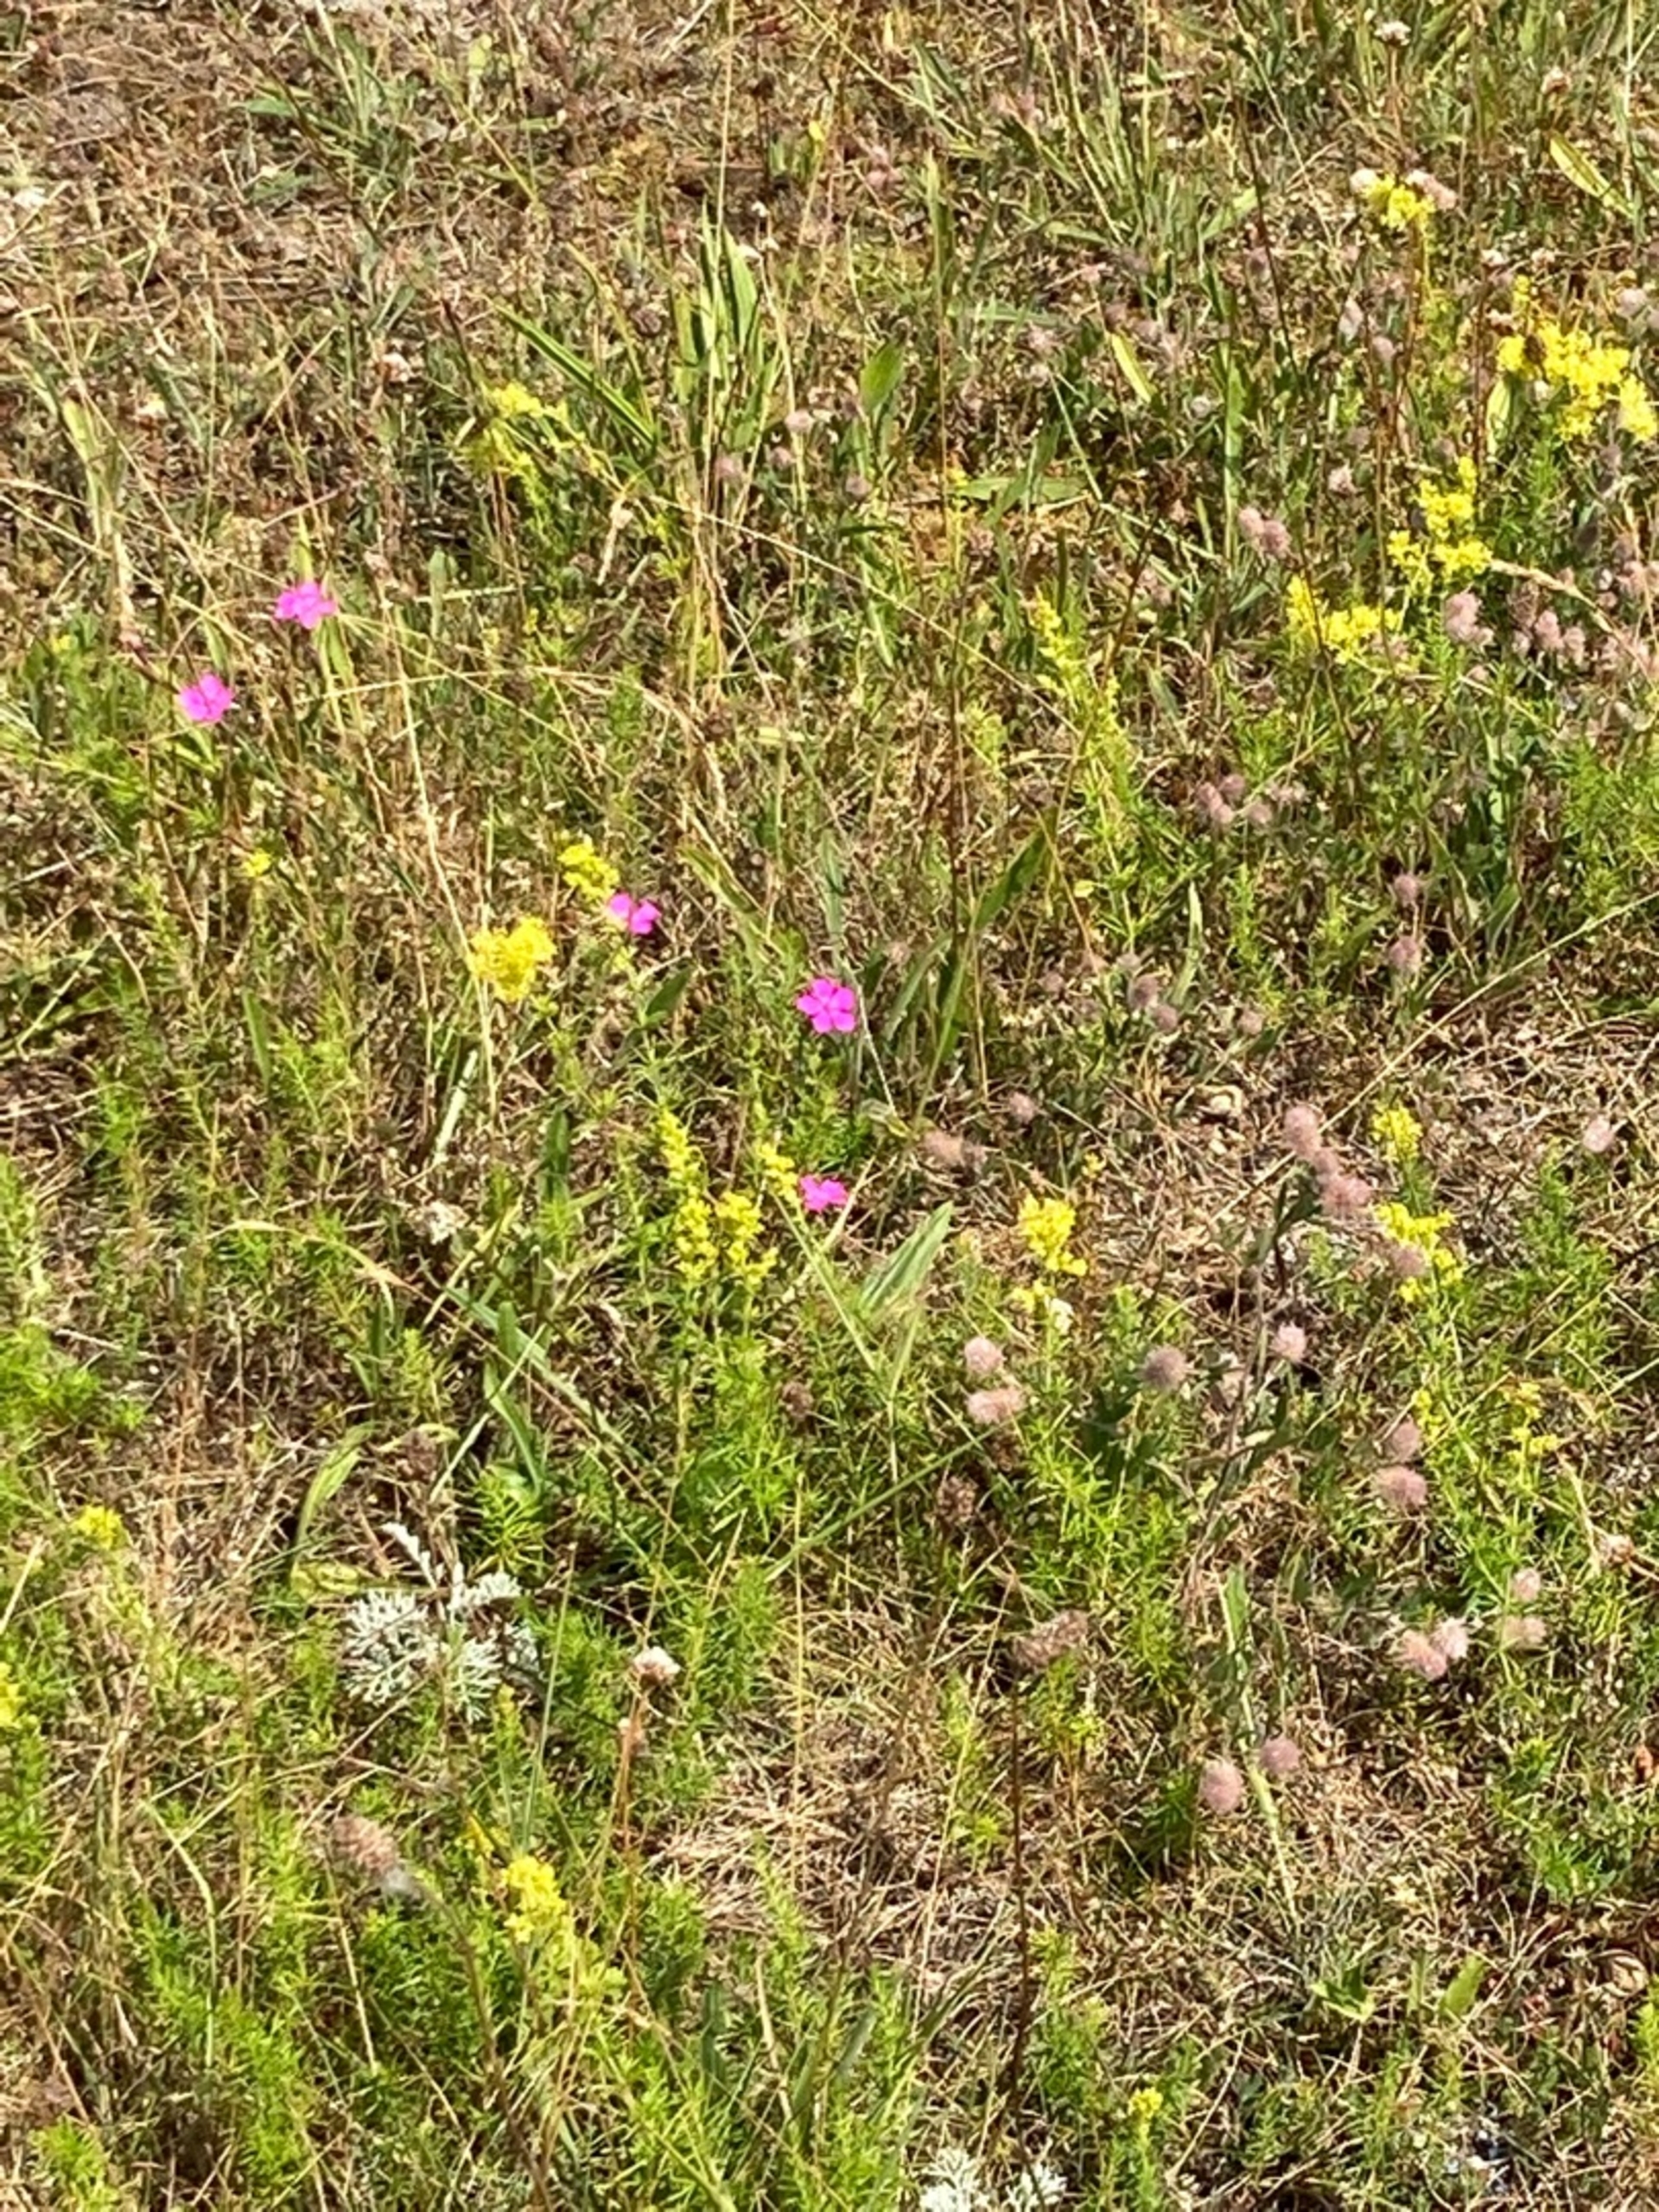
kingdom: Plantae
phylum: Tracheophyta
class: Magnoliopsida
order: Caryophyllales
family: Caryophyllaceae
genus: Dianthus
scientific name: Dianthus deltoides
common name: Bakke-nellike
